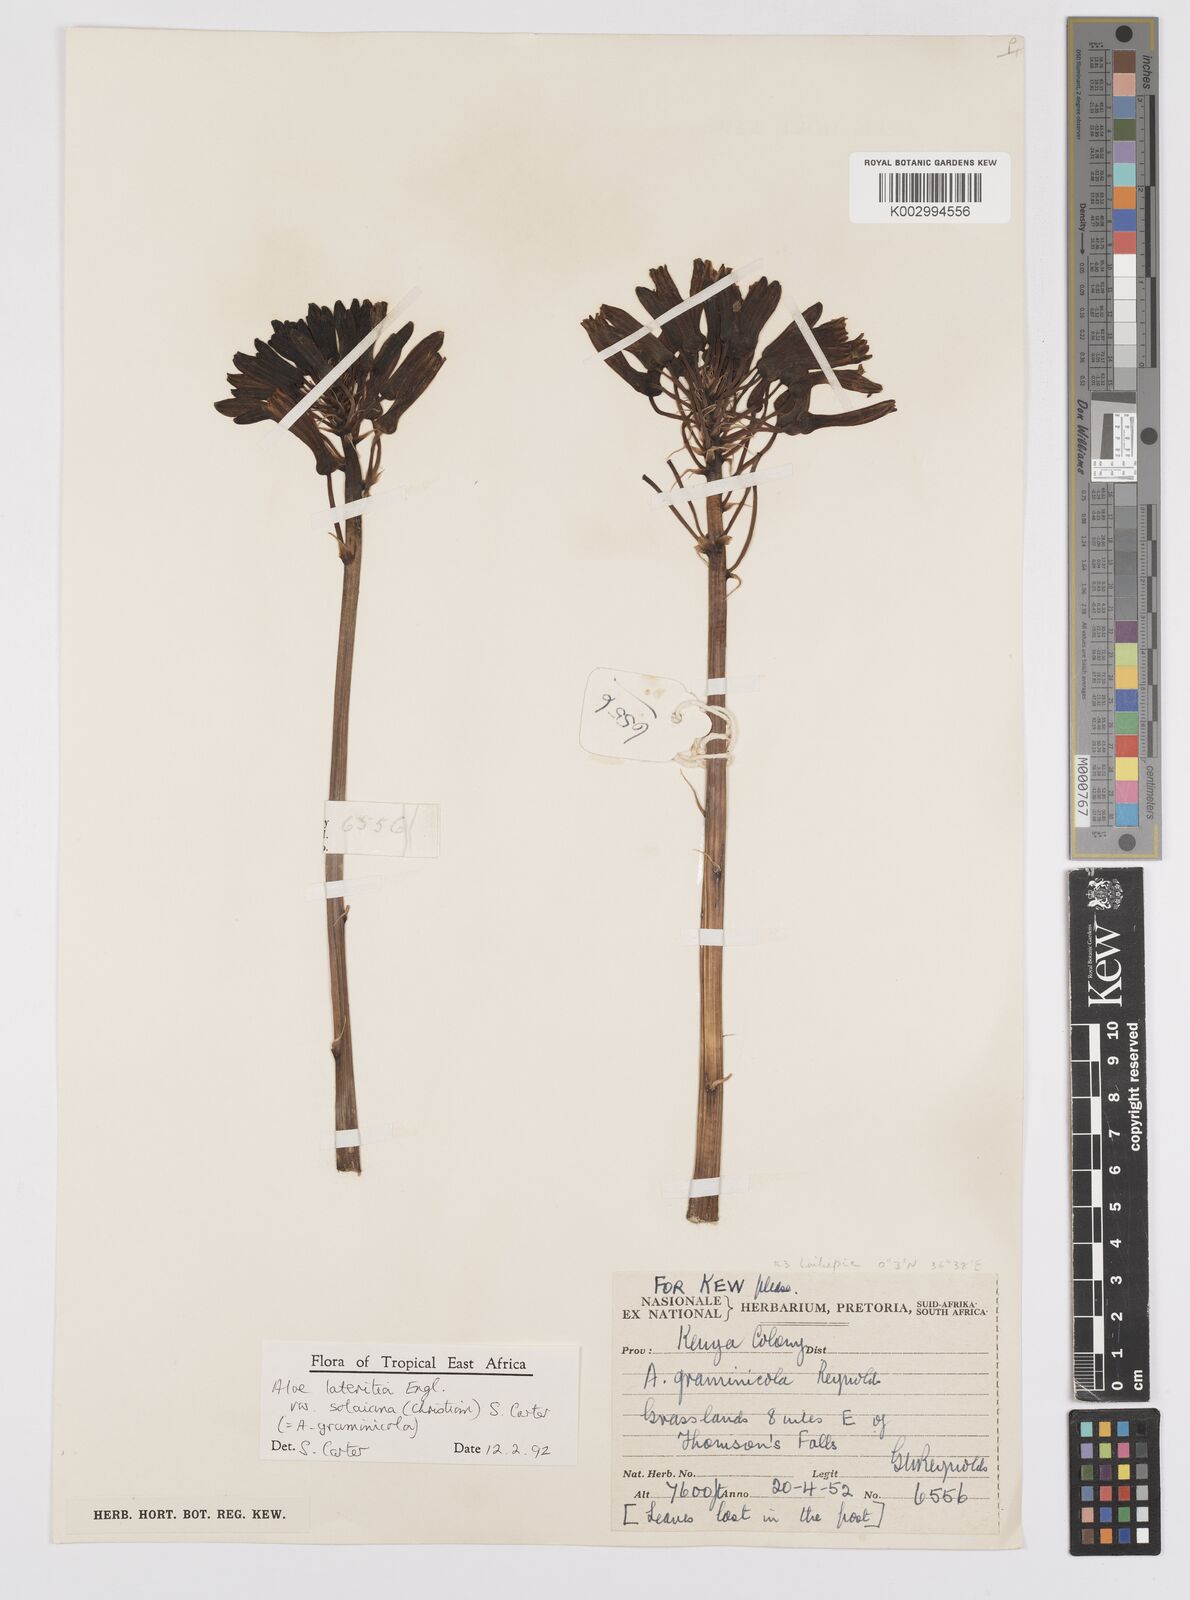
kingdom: Plantae
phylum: Tracheophyta
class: Liliopsida
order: Asparagales
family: Asphodelaceae
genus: Aloe
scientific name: Aloe lateritia
